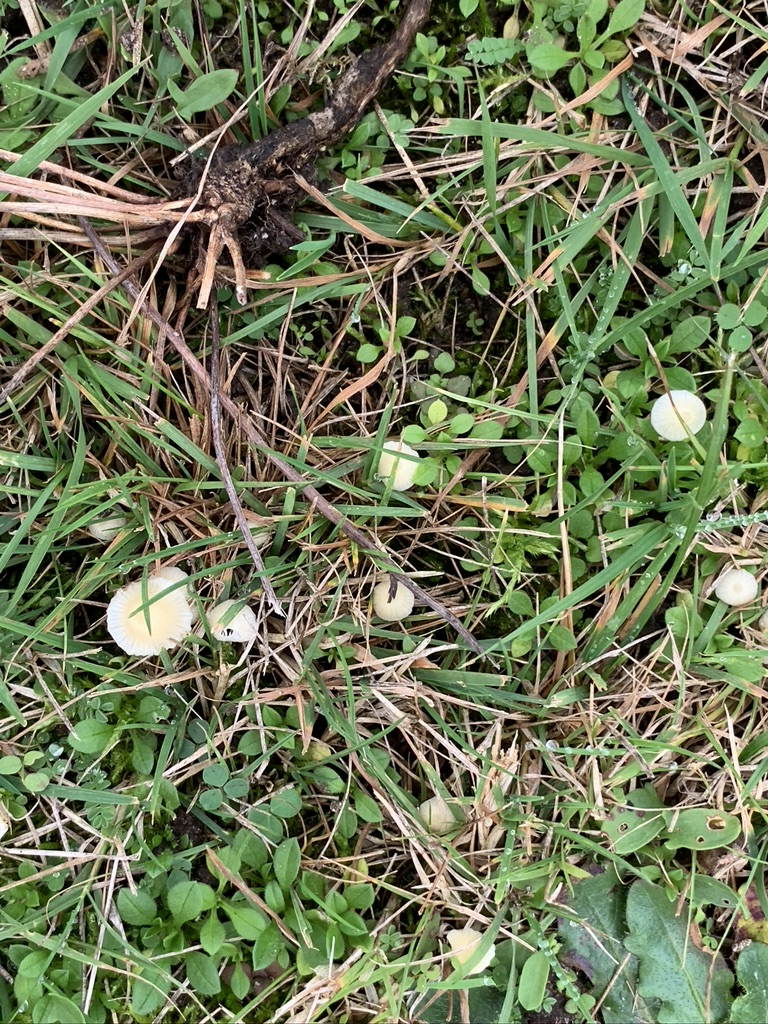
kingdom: Fungi
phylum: Basidiomycota
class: Agaricomycetes
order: Agaricales
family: Mycenaceae
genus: Atheniella
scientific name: Atheniella flavoalba
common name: gulhvid huesvamp
